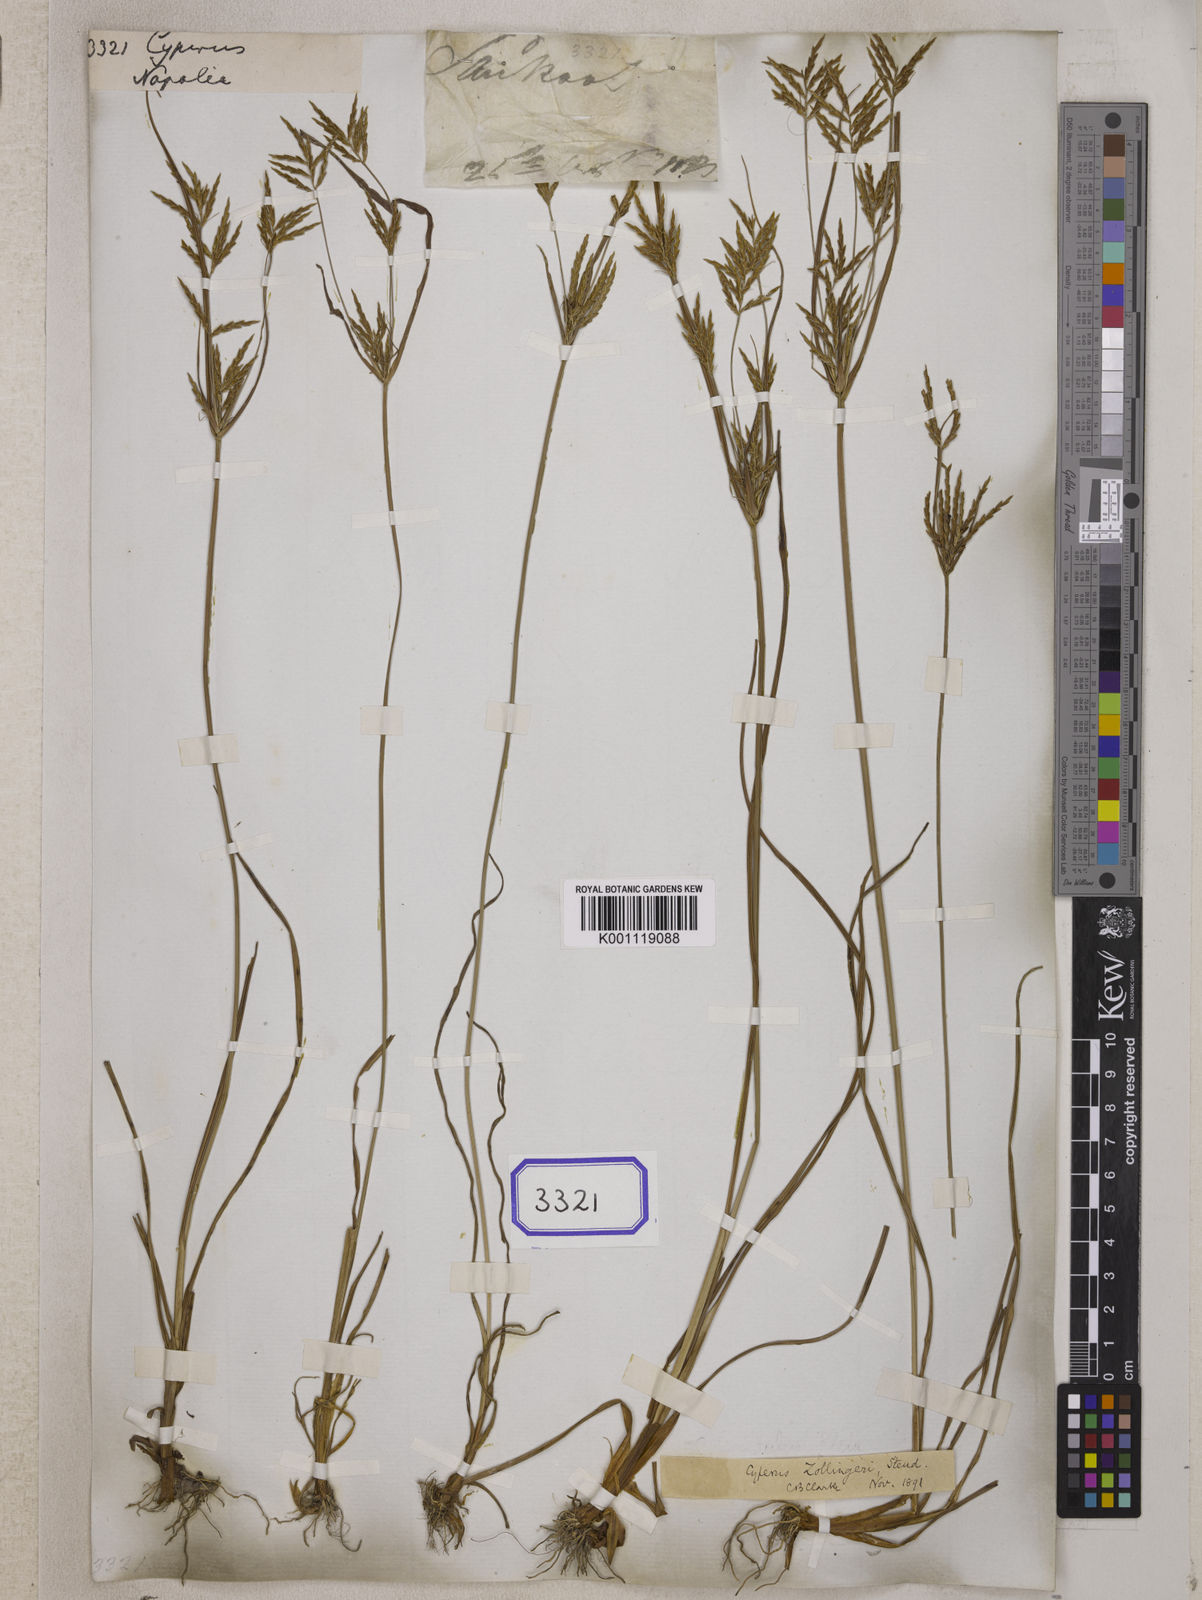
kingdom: Plantae
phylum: Tracheophyta
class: Liliopsida
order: Poales
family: Cyperaceae
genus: Cyperus
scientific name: Cyperus
